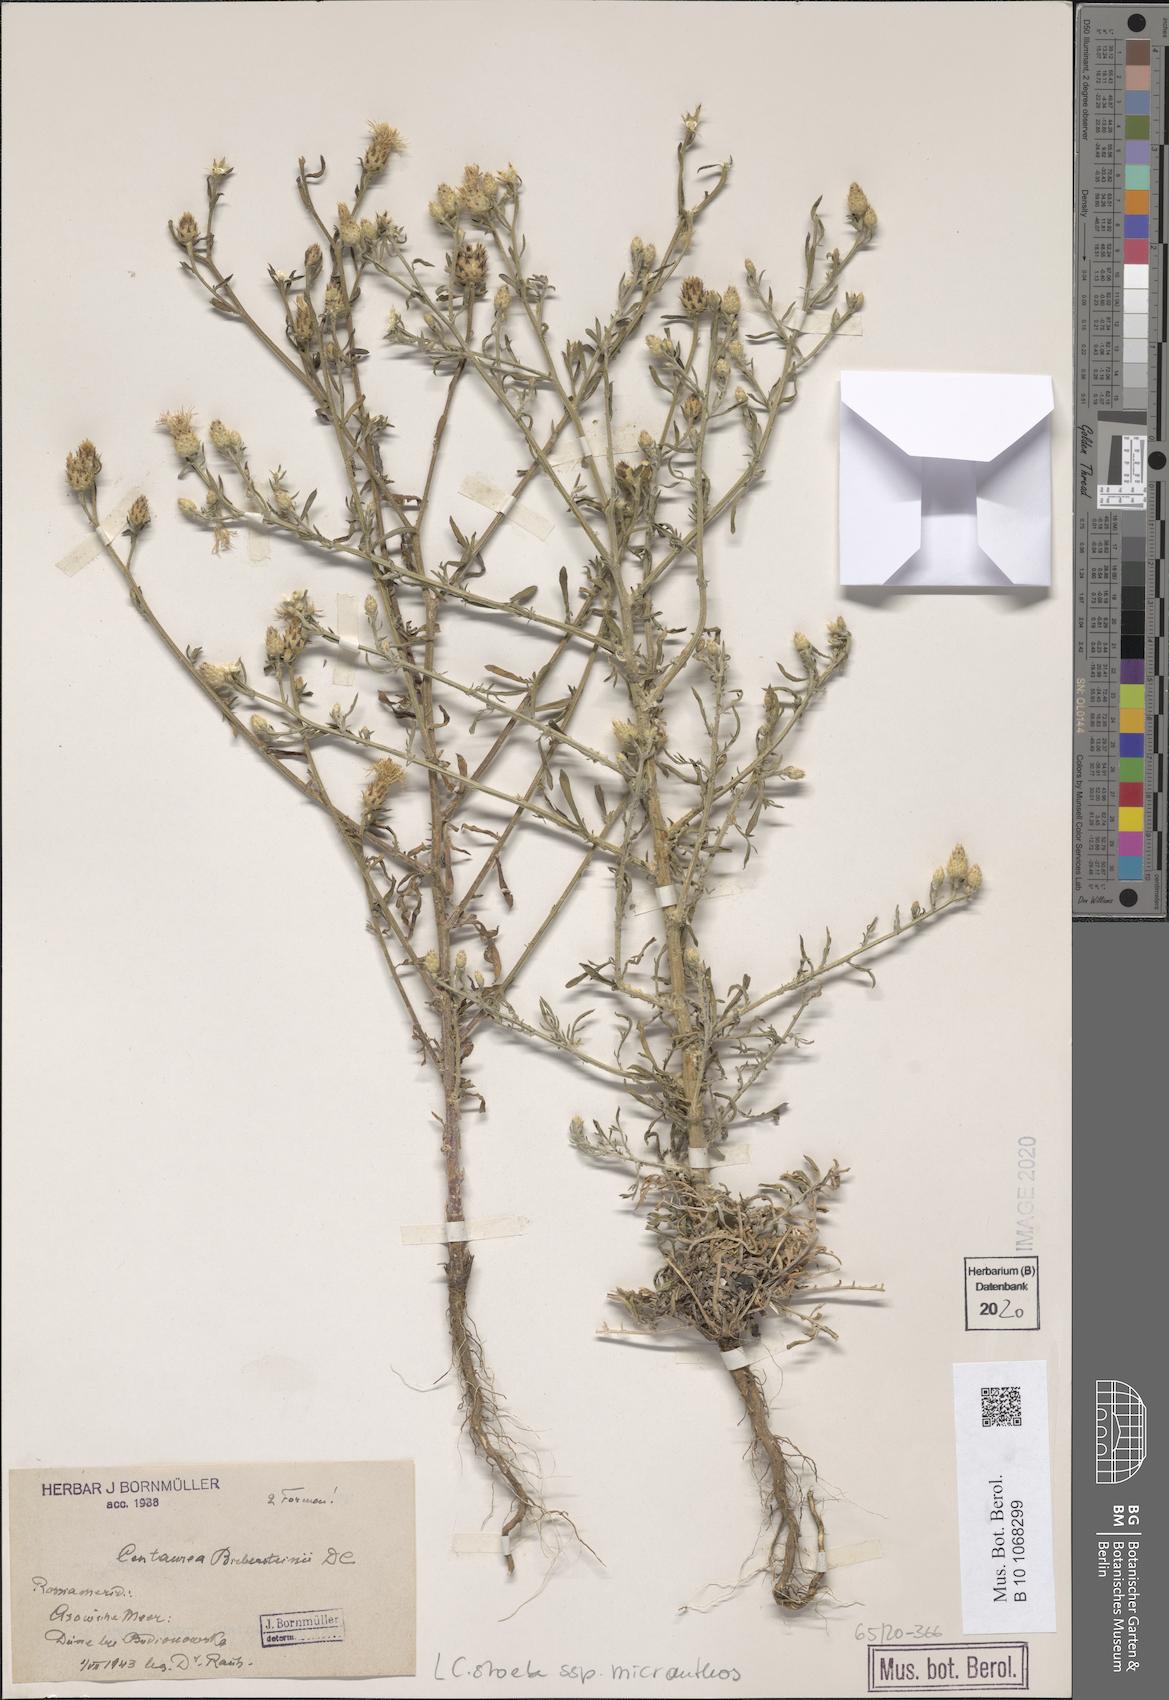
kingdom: Plantae
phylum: Tracheophyta
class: Magnoliopsida
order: Asterales
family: Asteraceae
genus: Centaurea
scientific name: Centaurea australis
